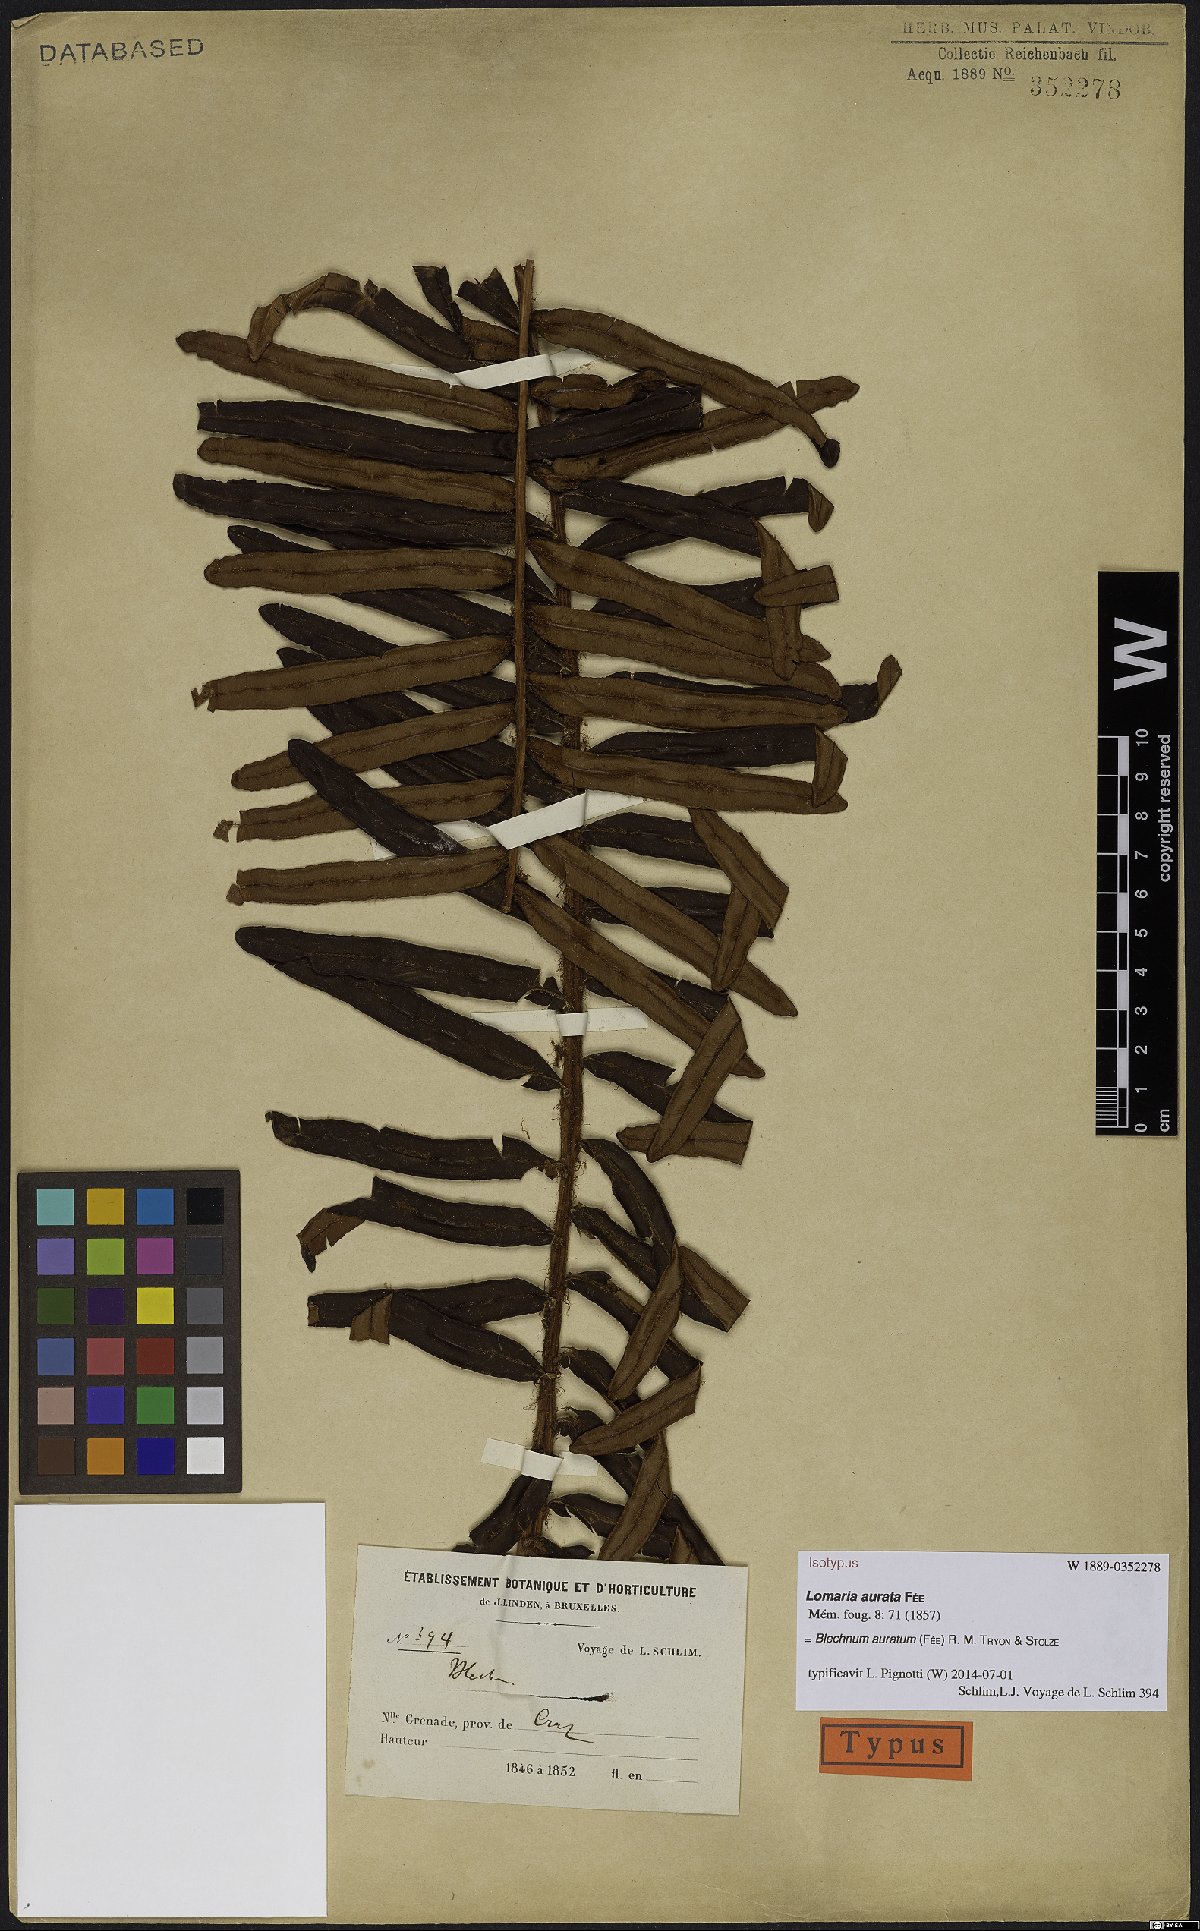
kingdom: Plantae
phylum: Tracheophyta
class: Polypodiopsida
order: Polypodiales
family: Blechnaceae
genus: Lomariocycas
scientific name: Lomariocycas aurata
